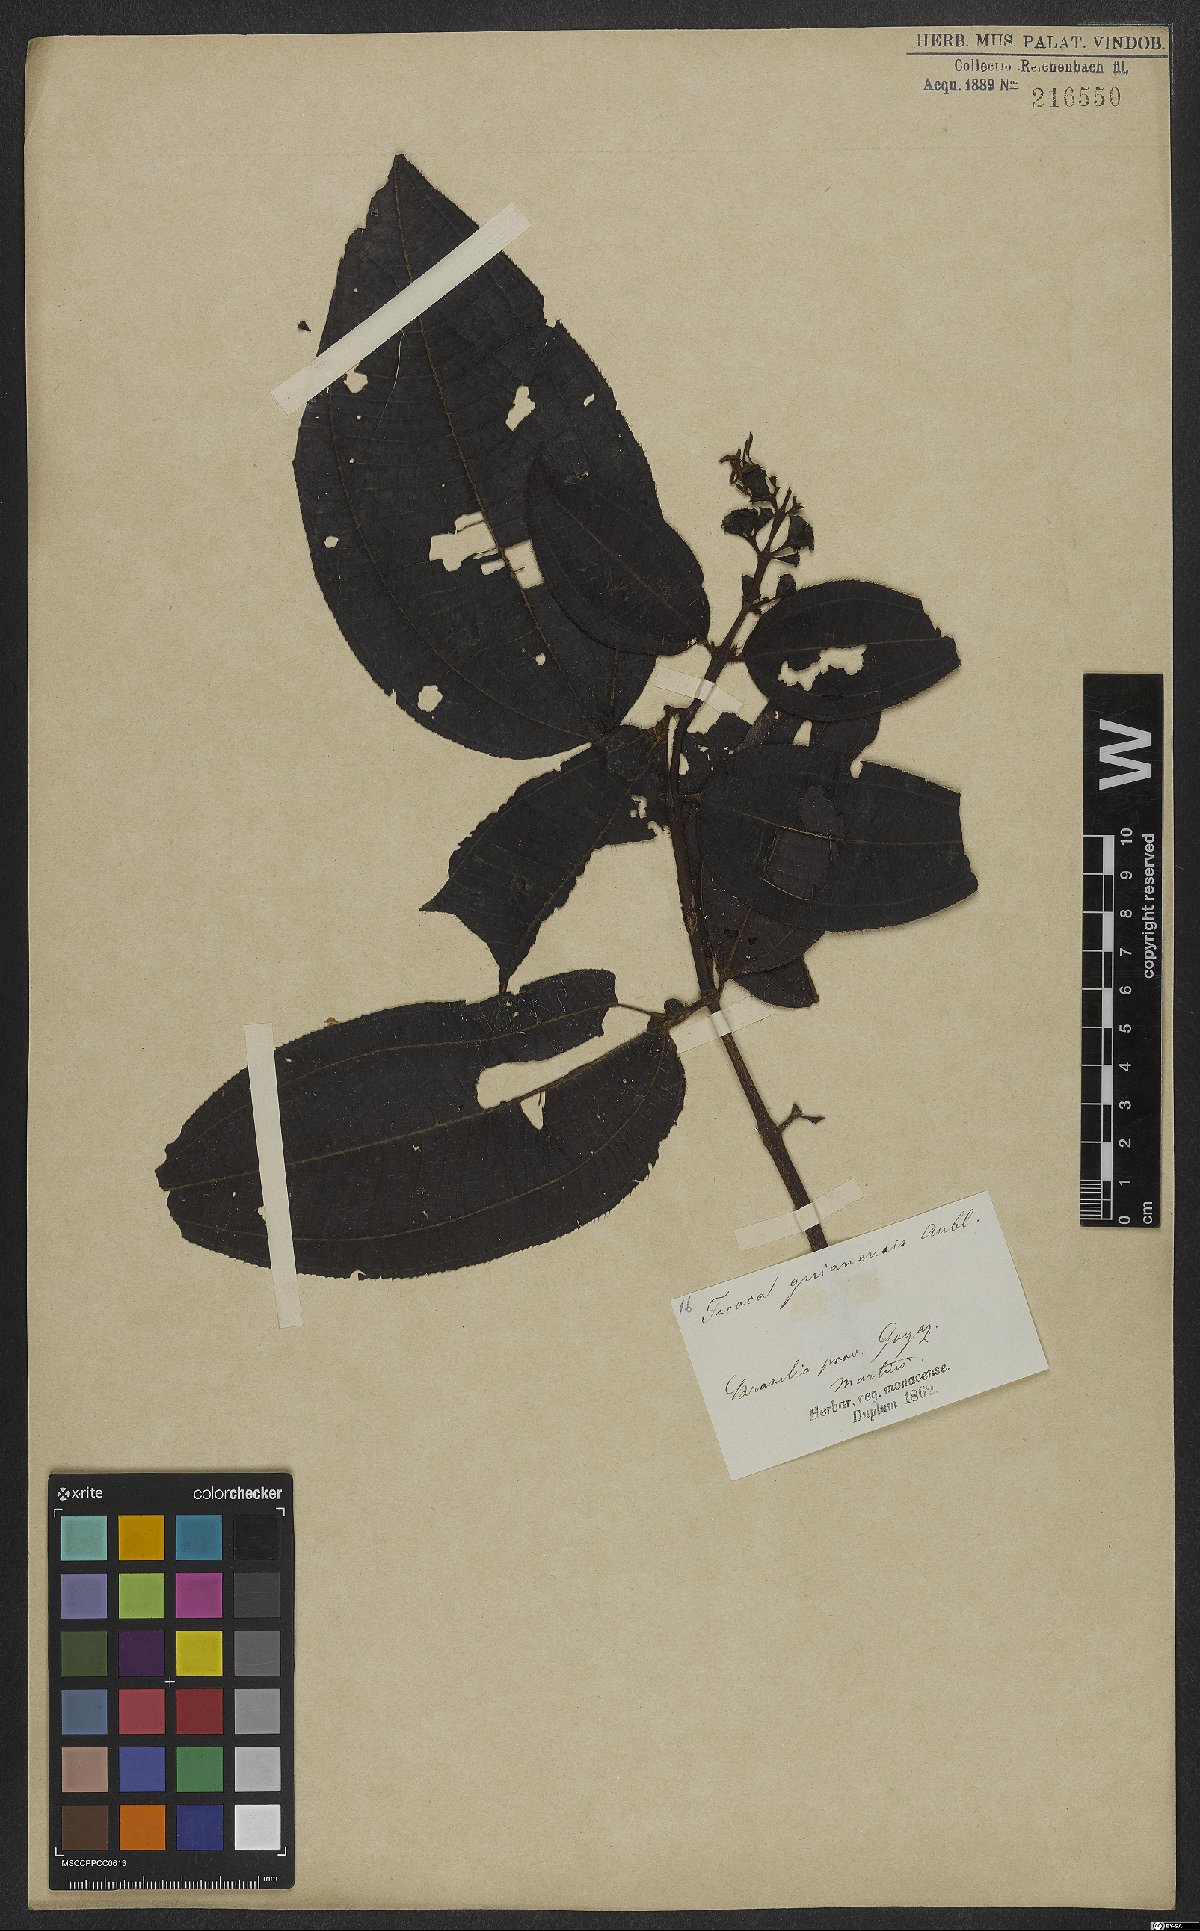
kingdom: Plantae
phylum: Tracheophyta
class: Magnoliopsida
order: Myrtales
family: Melastomataceae
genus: Miconia
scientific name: Miconia tococa
